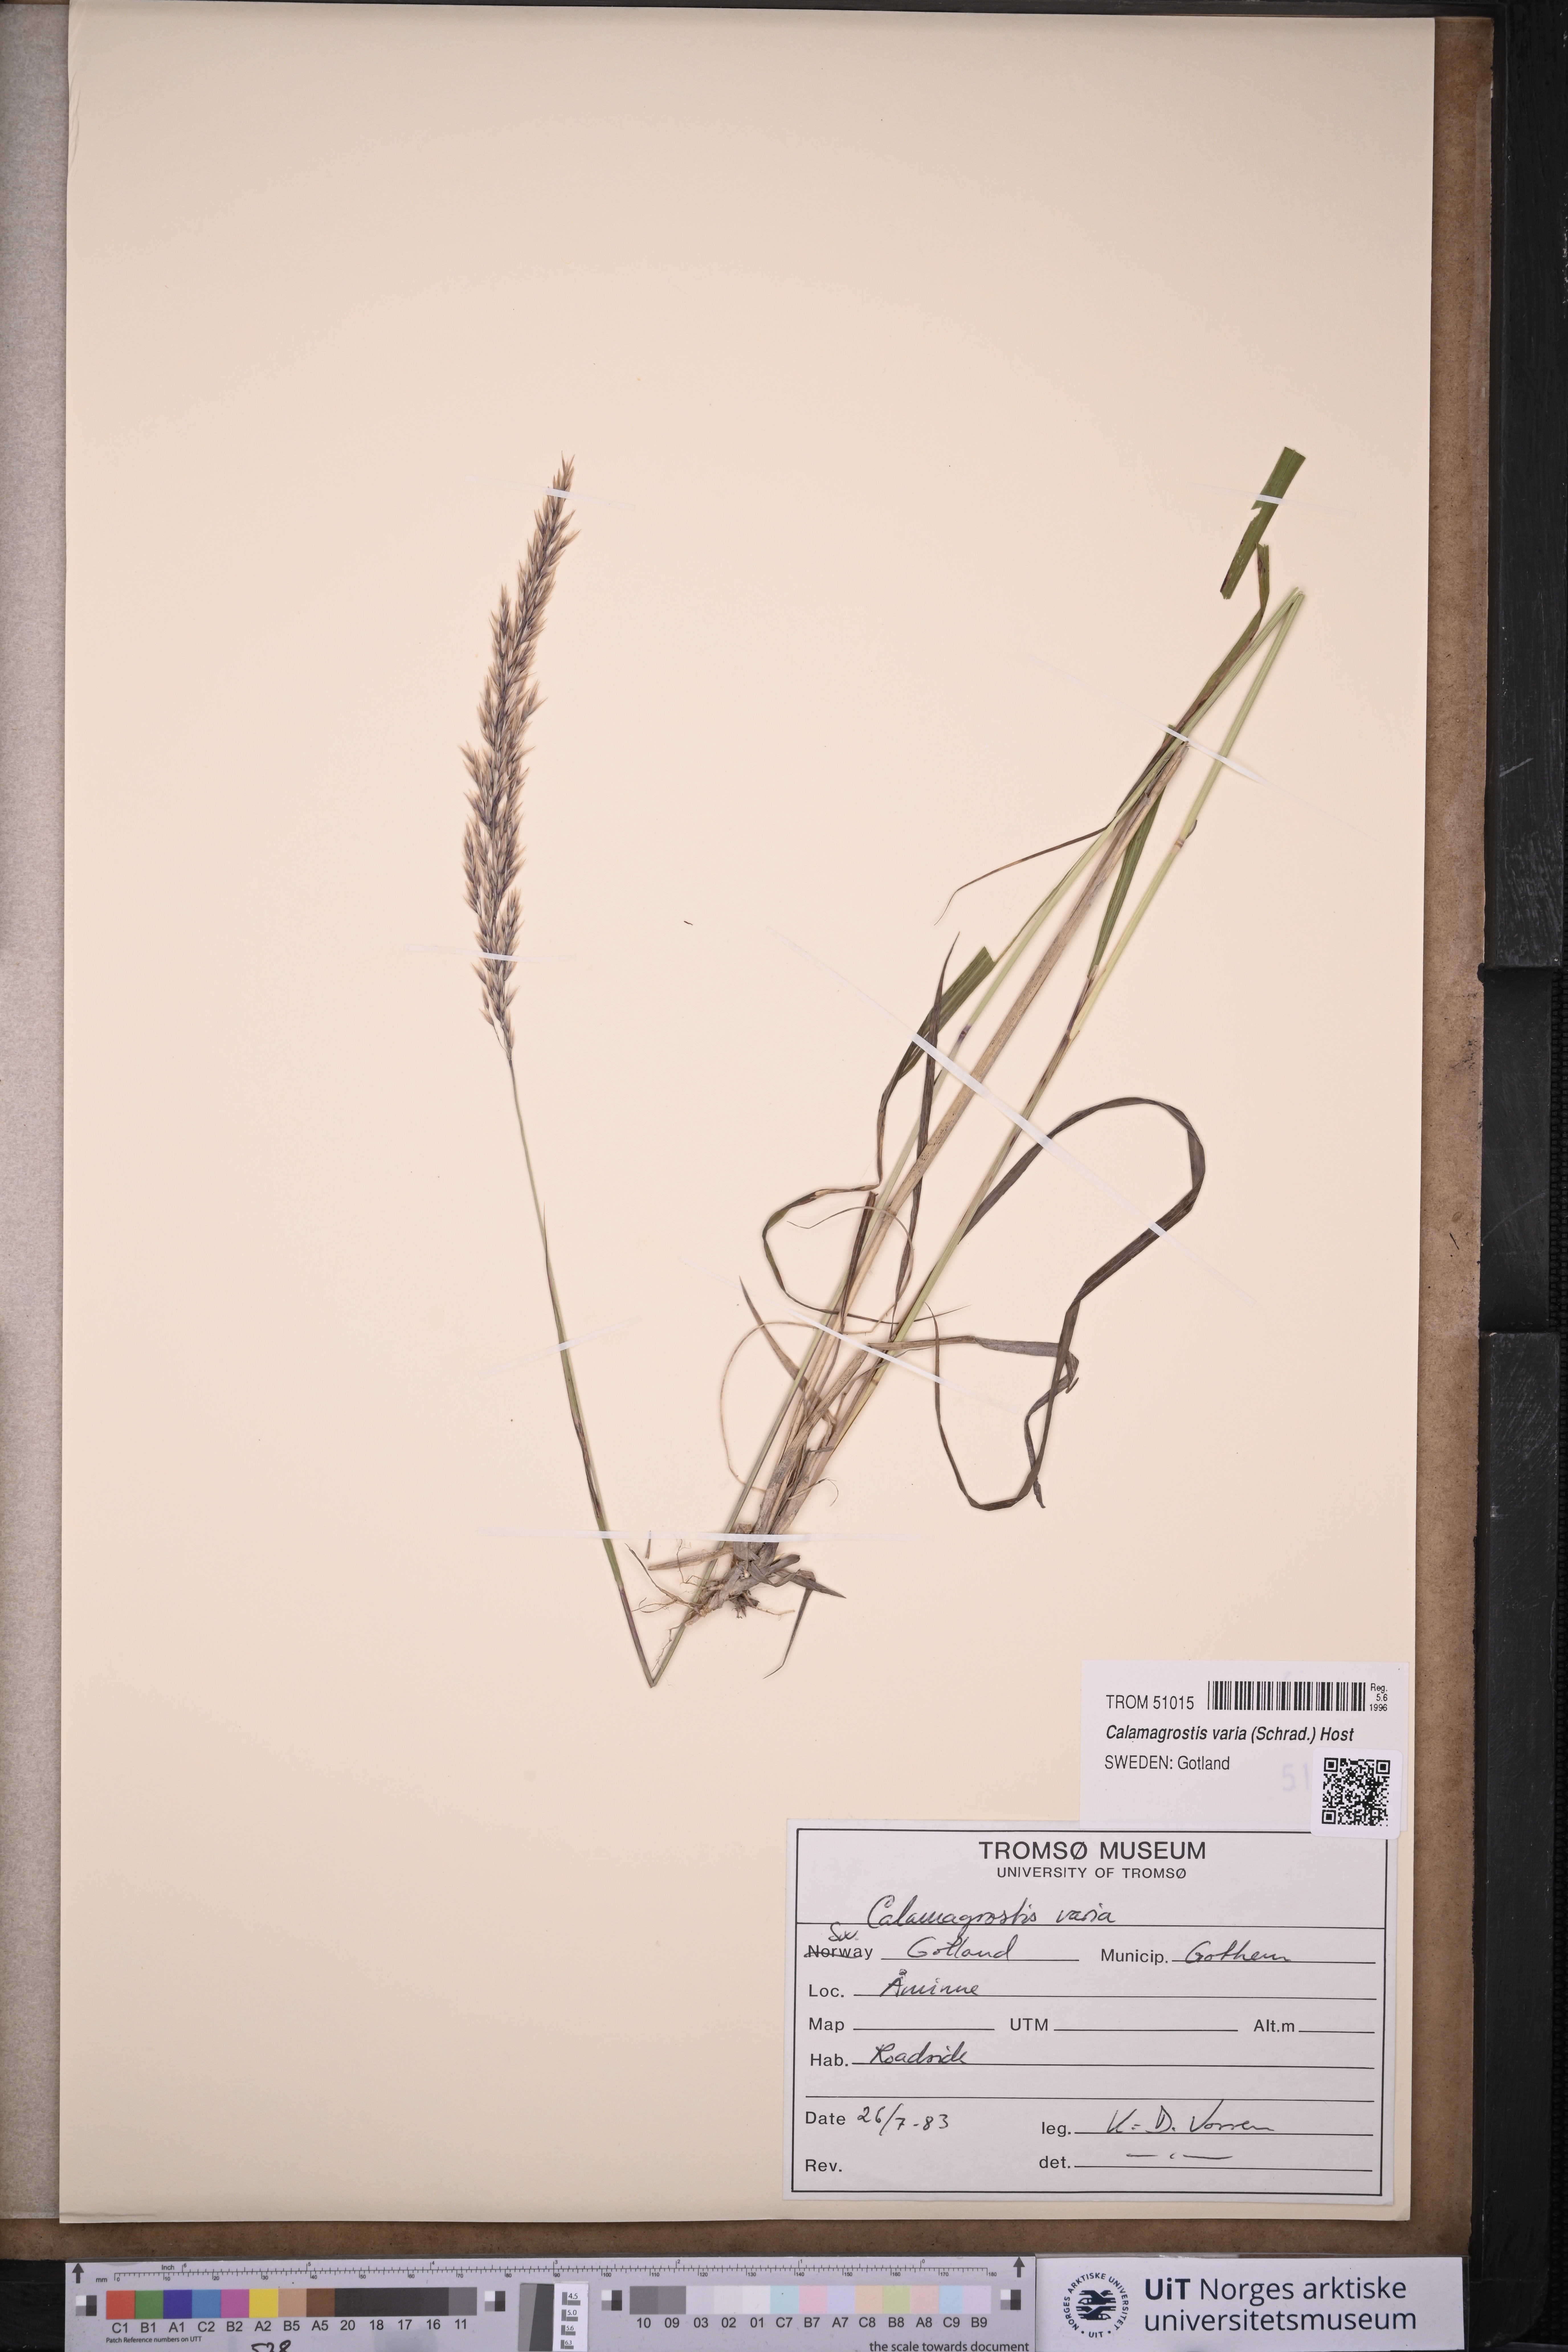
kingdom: Plantae
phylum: Tracheophyta
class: Liliopsida
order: Poales
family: Poaceae
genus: Calamagrostis
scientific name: Calamagrostis varia
